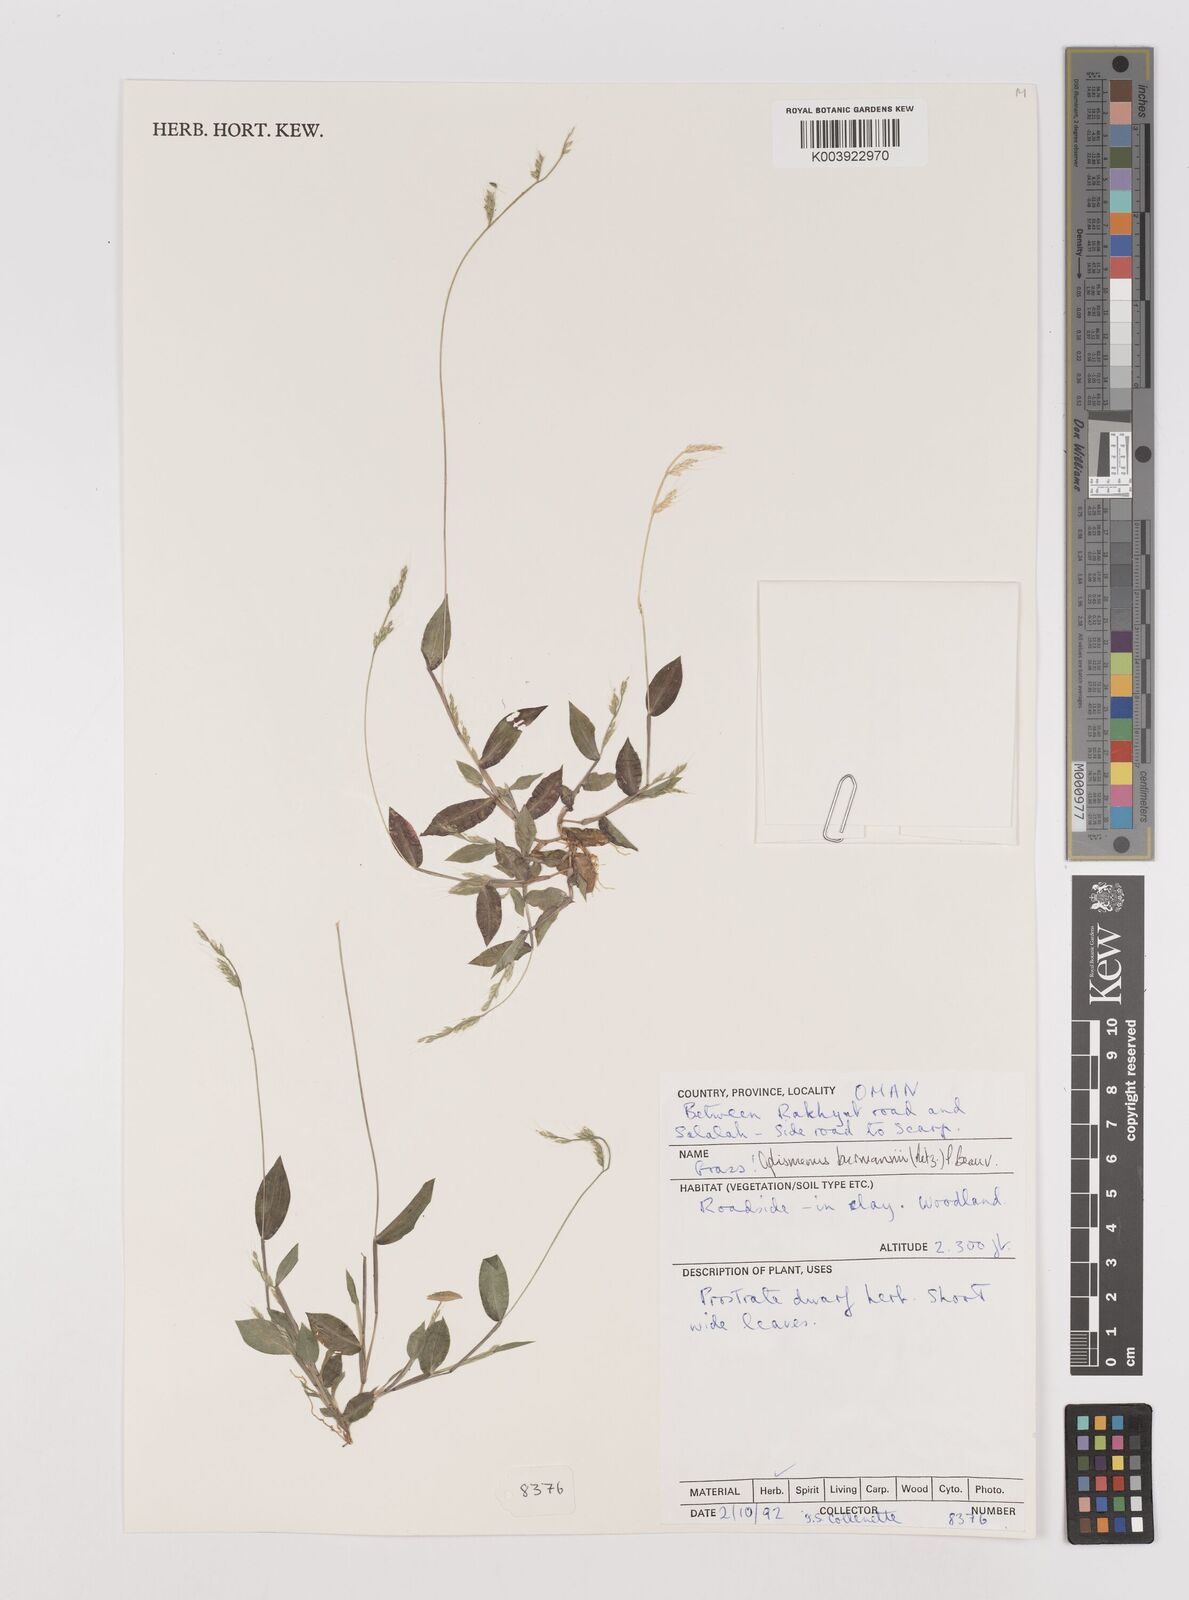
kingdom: Plantae
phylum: Tracheophyta
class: Liliopsida
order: Poales
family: Poaceae
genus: Oplismenus
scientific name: Oplismenus burmanni
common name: Burmann's basketgrass
